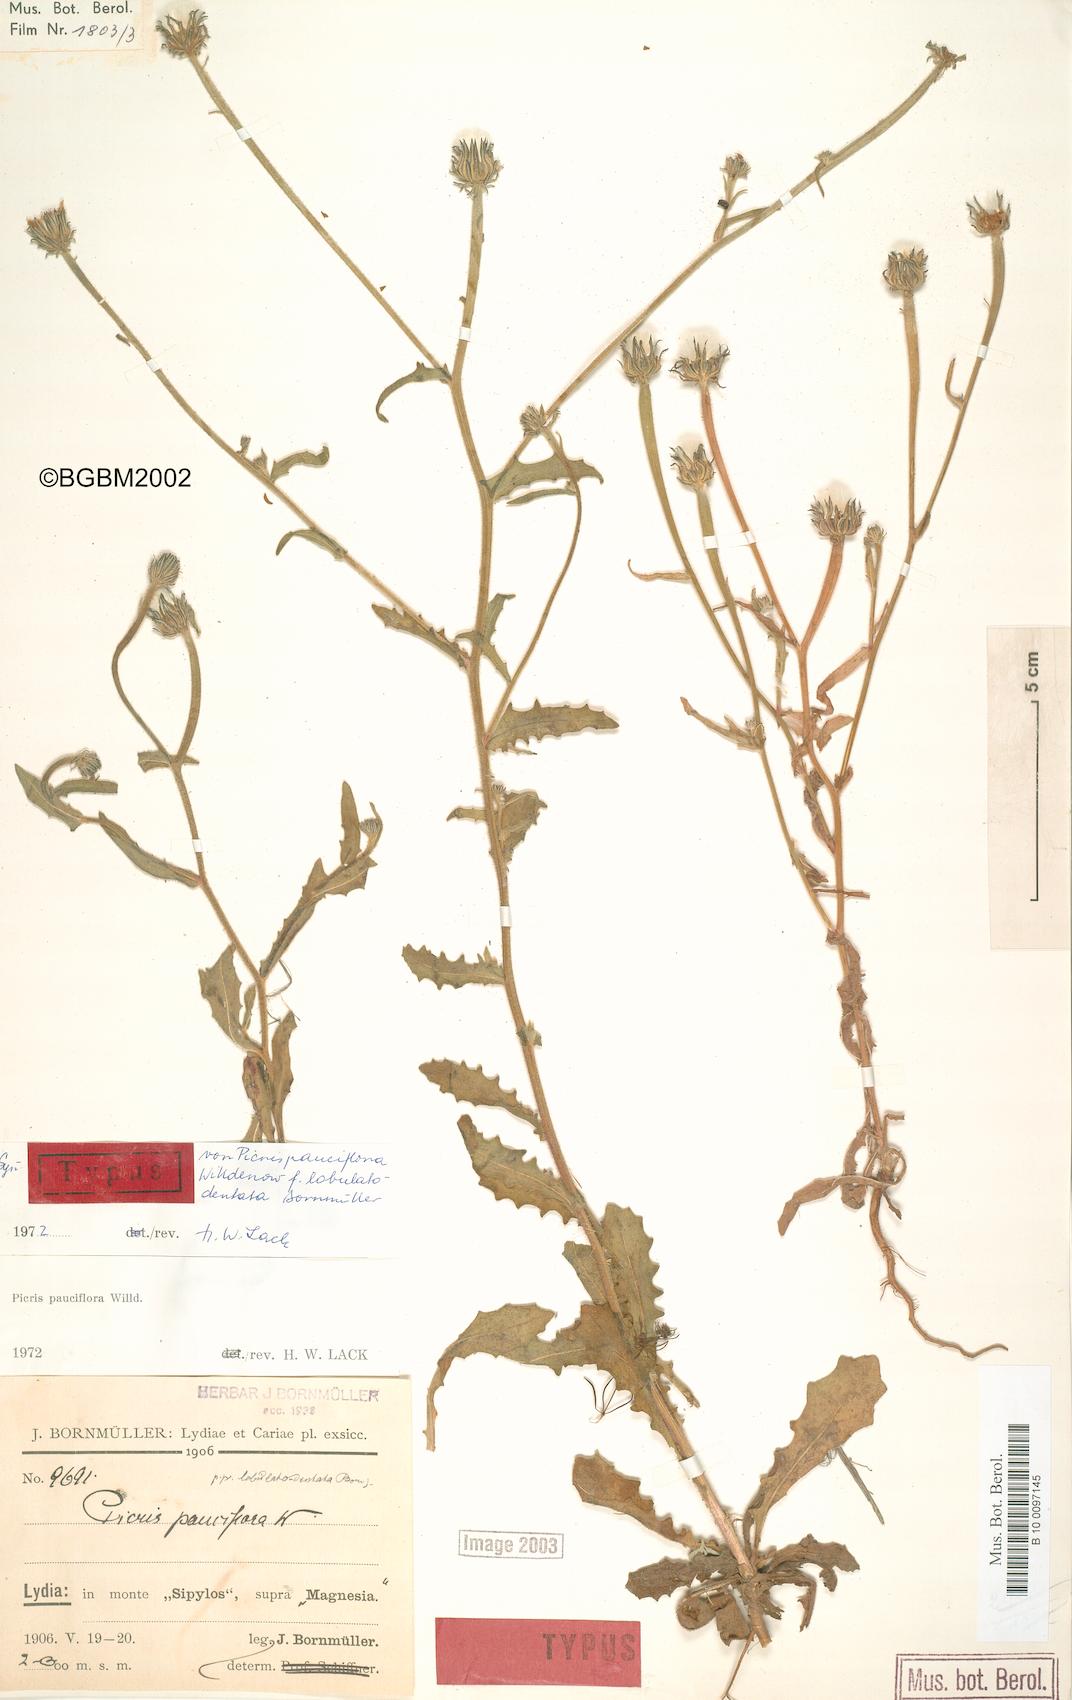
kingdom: Plantae
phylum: Tracheophyta
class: Magnoliopsida
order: Asterales
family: Asteraceae
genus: Picris
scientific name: Picris pauciflora
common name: Smallflower oxtongue
